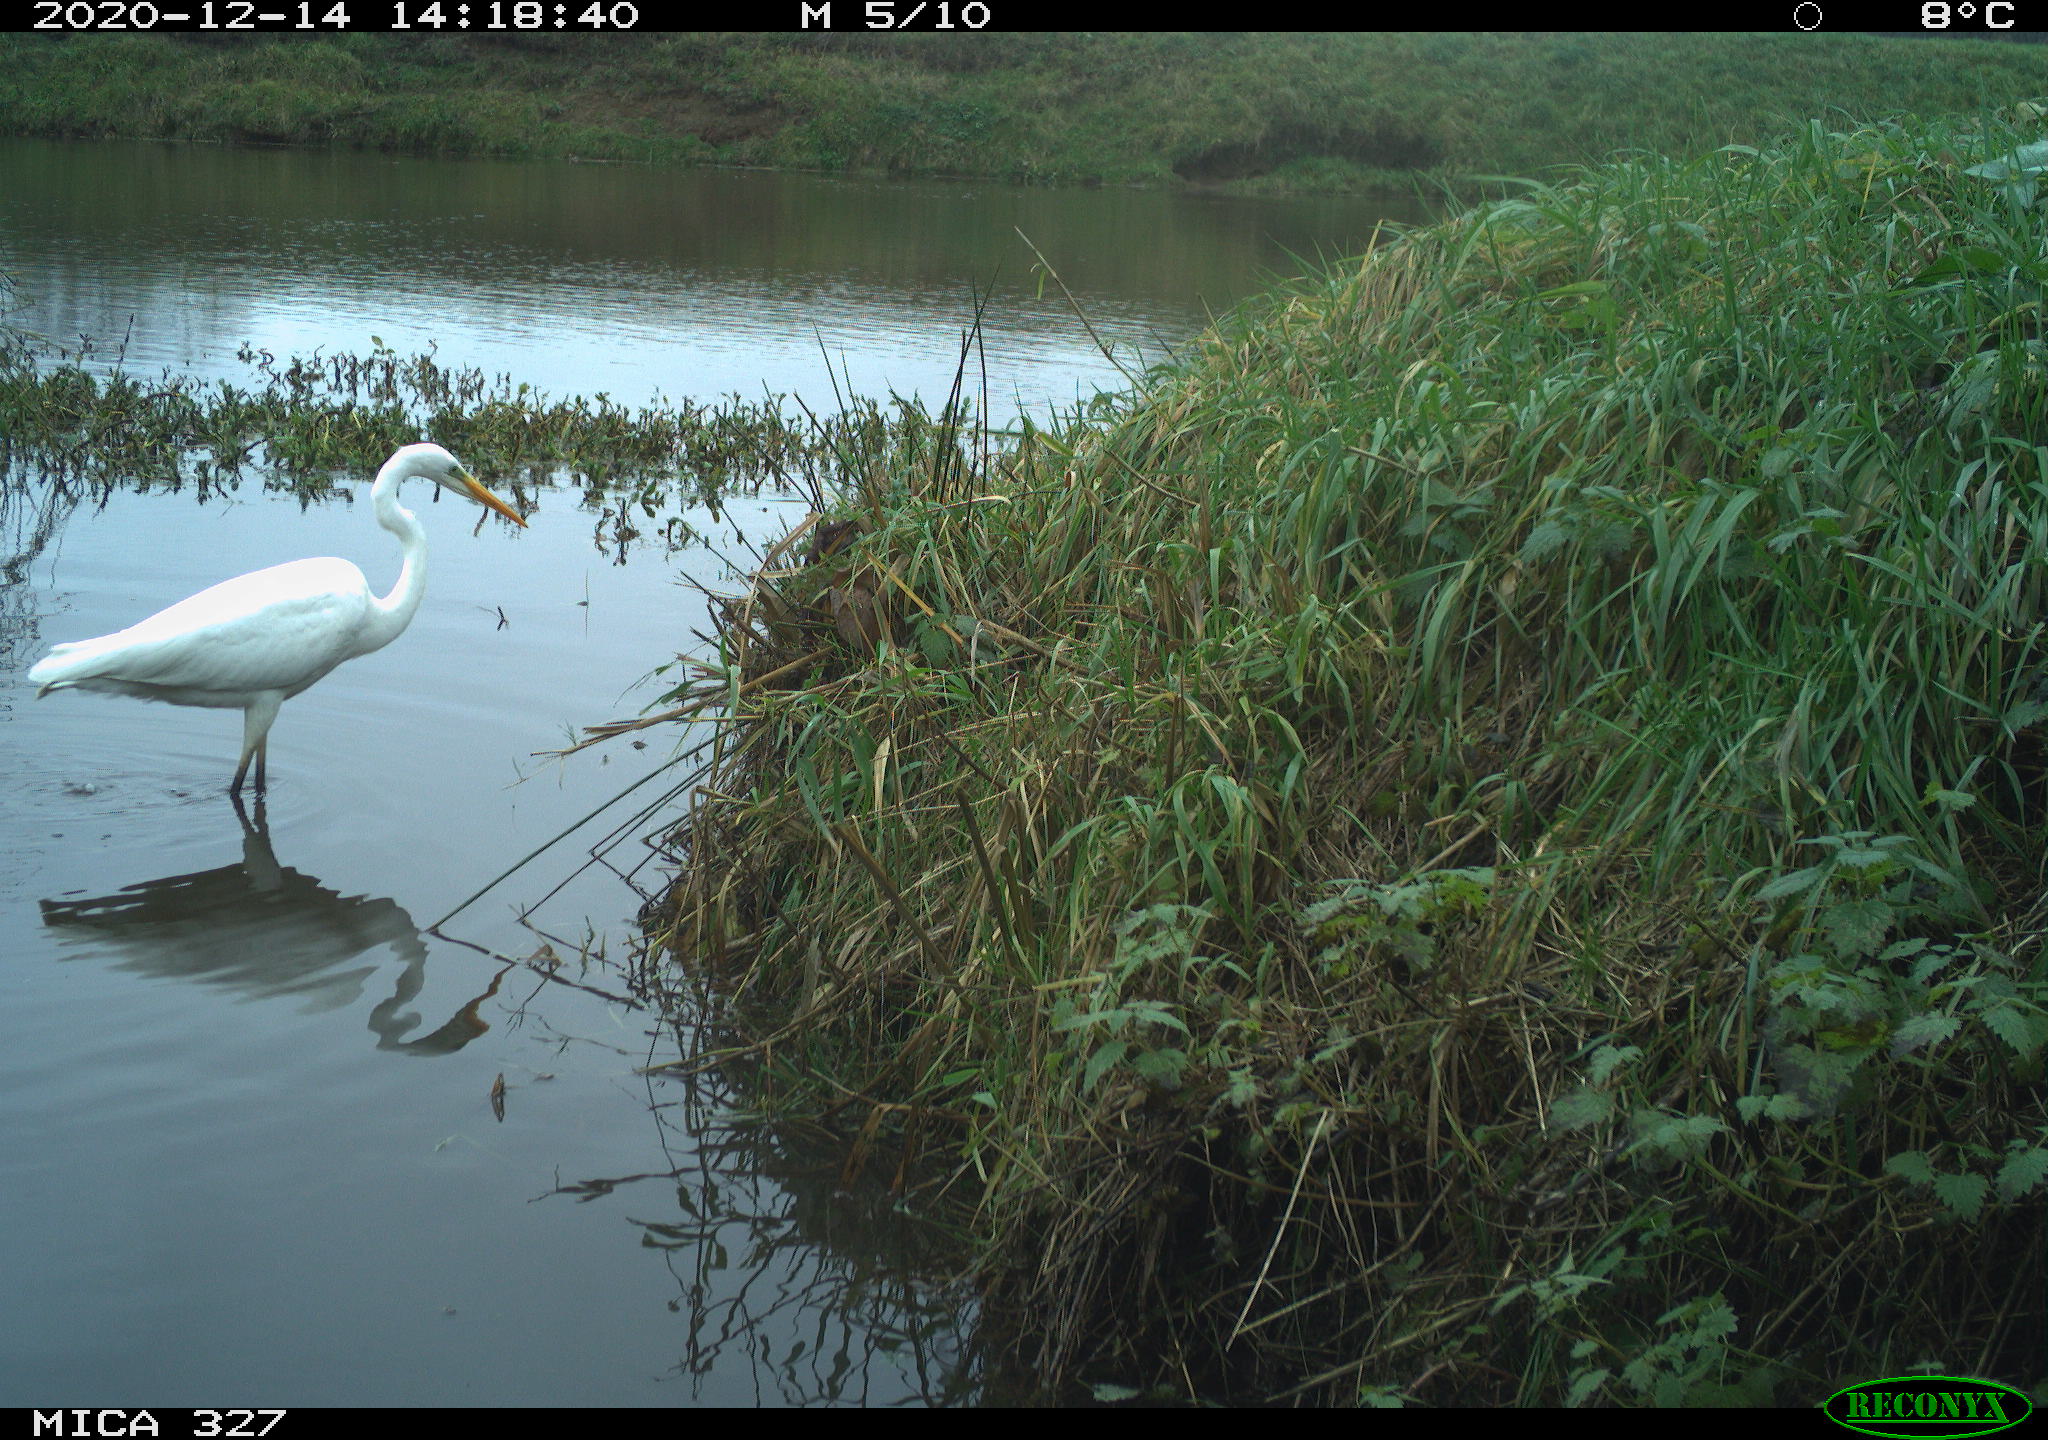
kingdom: Animalia
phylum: Chordata
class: Aves
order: Pelecaniformes
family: Ardeidae
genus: Ardea
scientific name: Ardea alba
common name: Great egret
